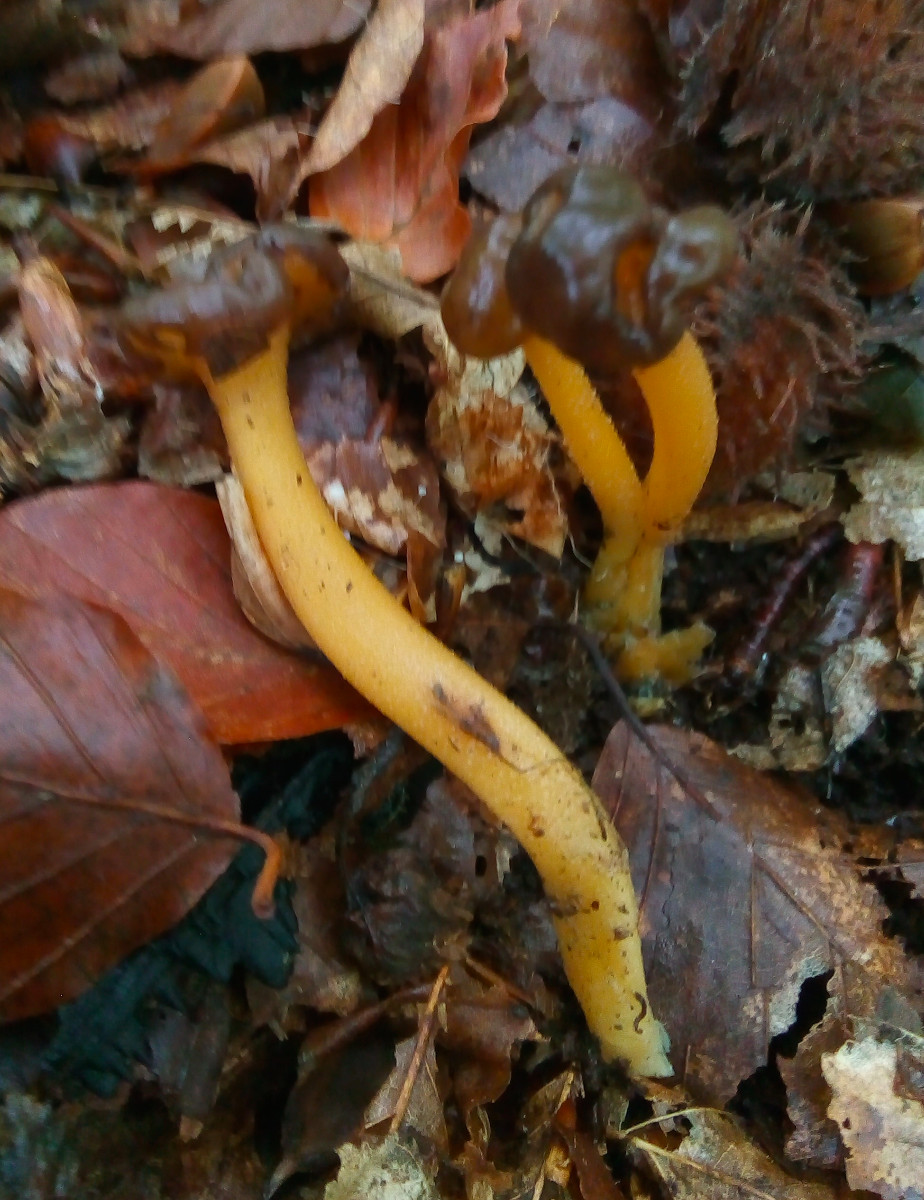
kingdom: Fungi
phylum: Ascomycota
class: Leotiomycetes
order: Leotiales
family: Leotiaceae
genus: Leotia
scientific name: Leotia lubrica
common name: ravsvamp
